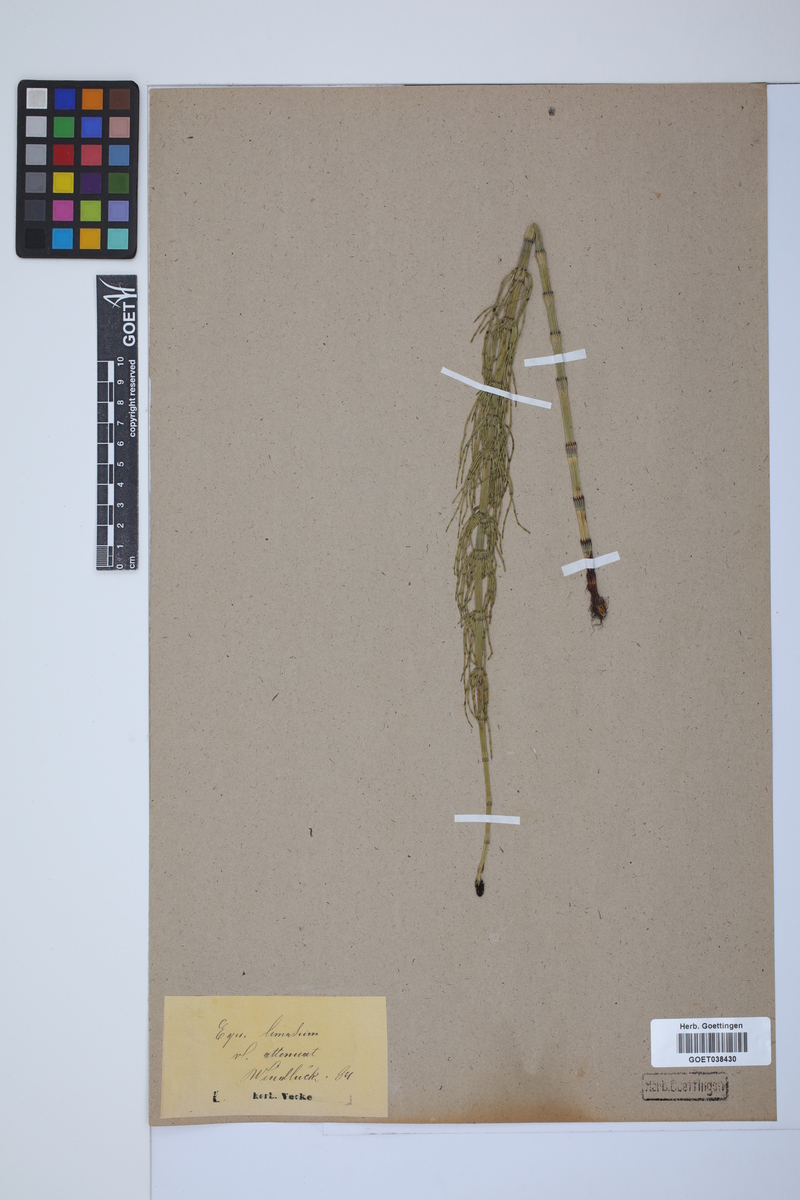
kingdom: Plantae
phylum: Tracheophyta
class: Polypodiopsida
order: Equisetales
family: Equisetaceae
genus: Equisetum
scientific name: Equisetum fluviatile
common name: Water horsetail
